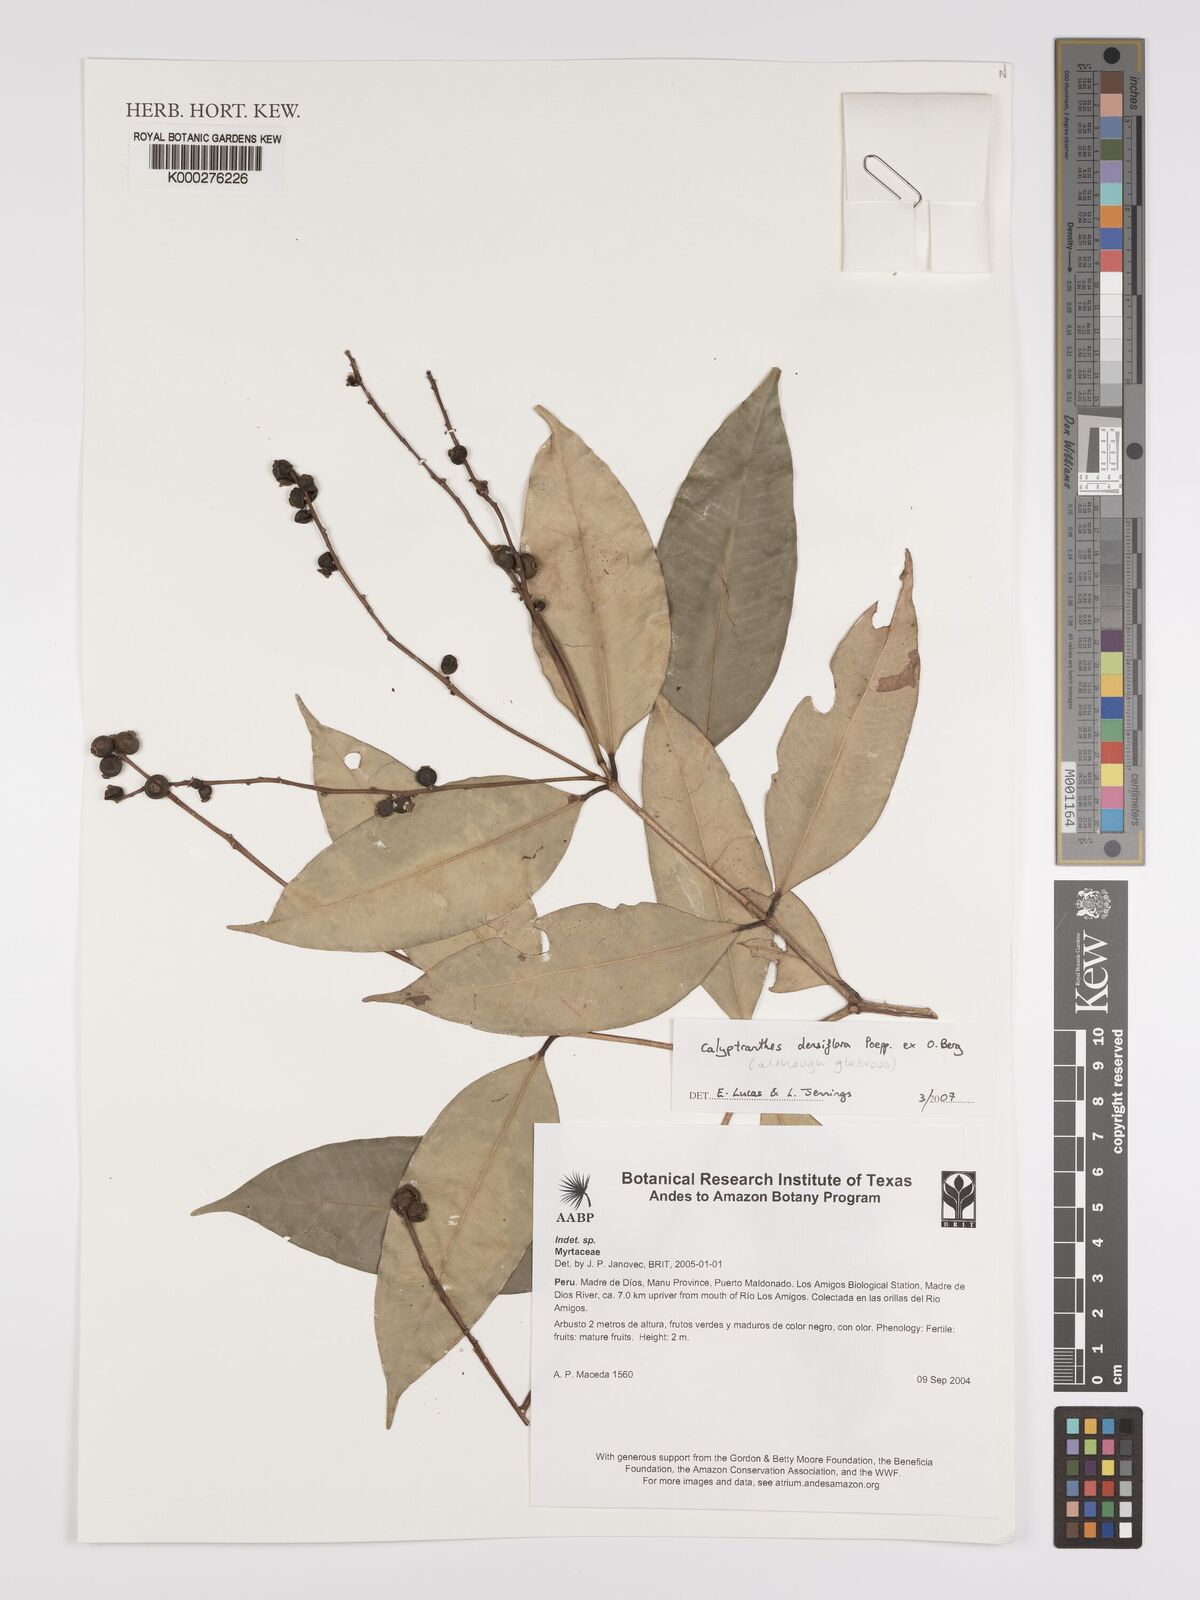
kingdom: Plantae
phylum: Tracheophyta
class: Magnoliopsida
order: Myrtales
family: Myrtaceae
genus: Myrcia
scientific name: Myrcia densiflora
